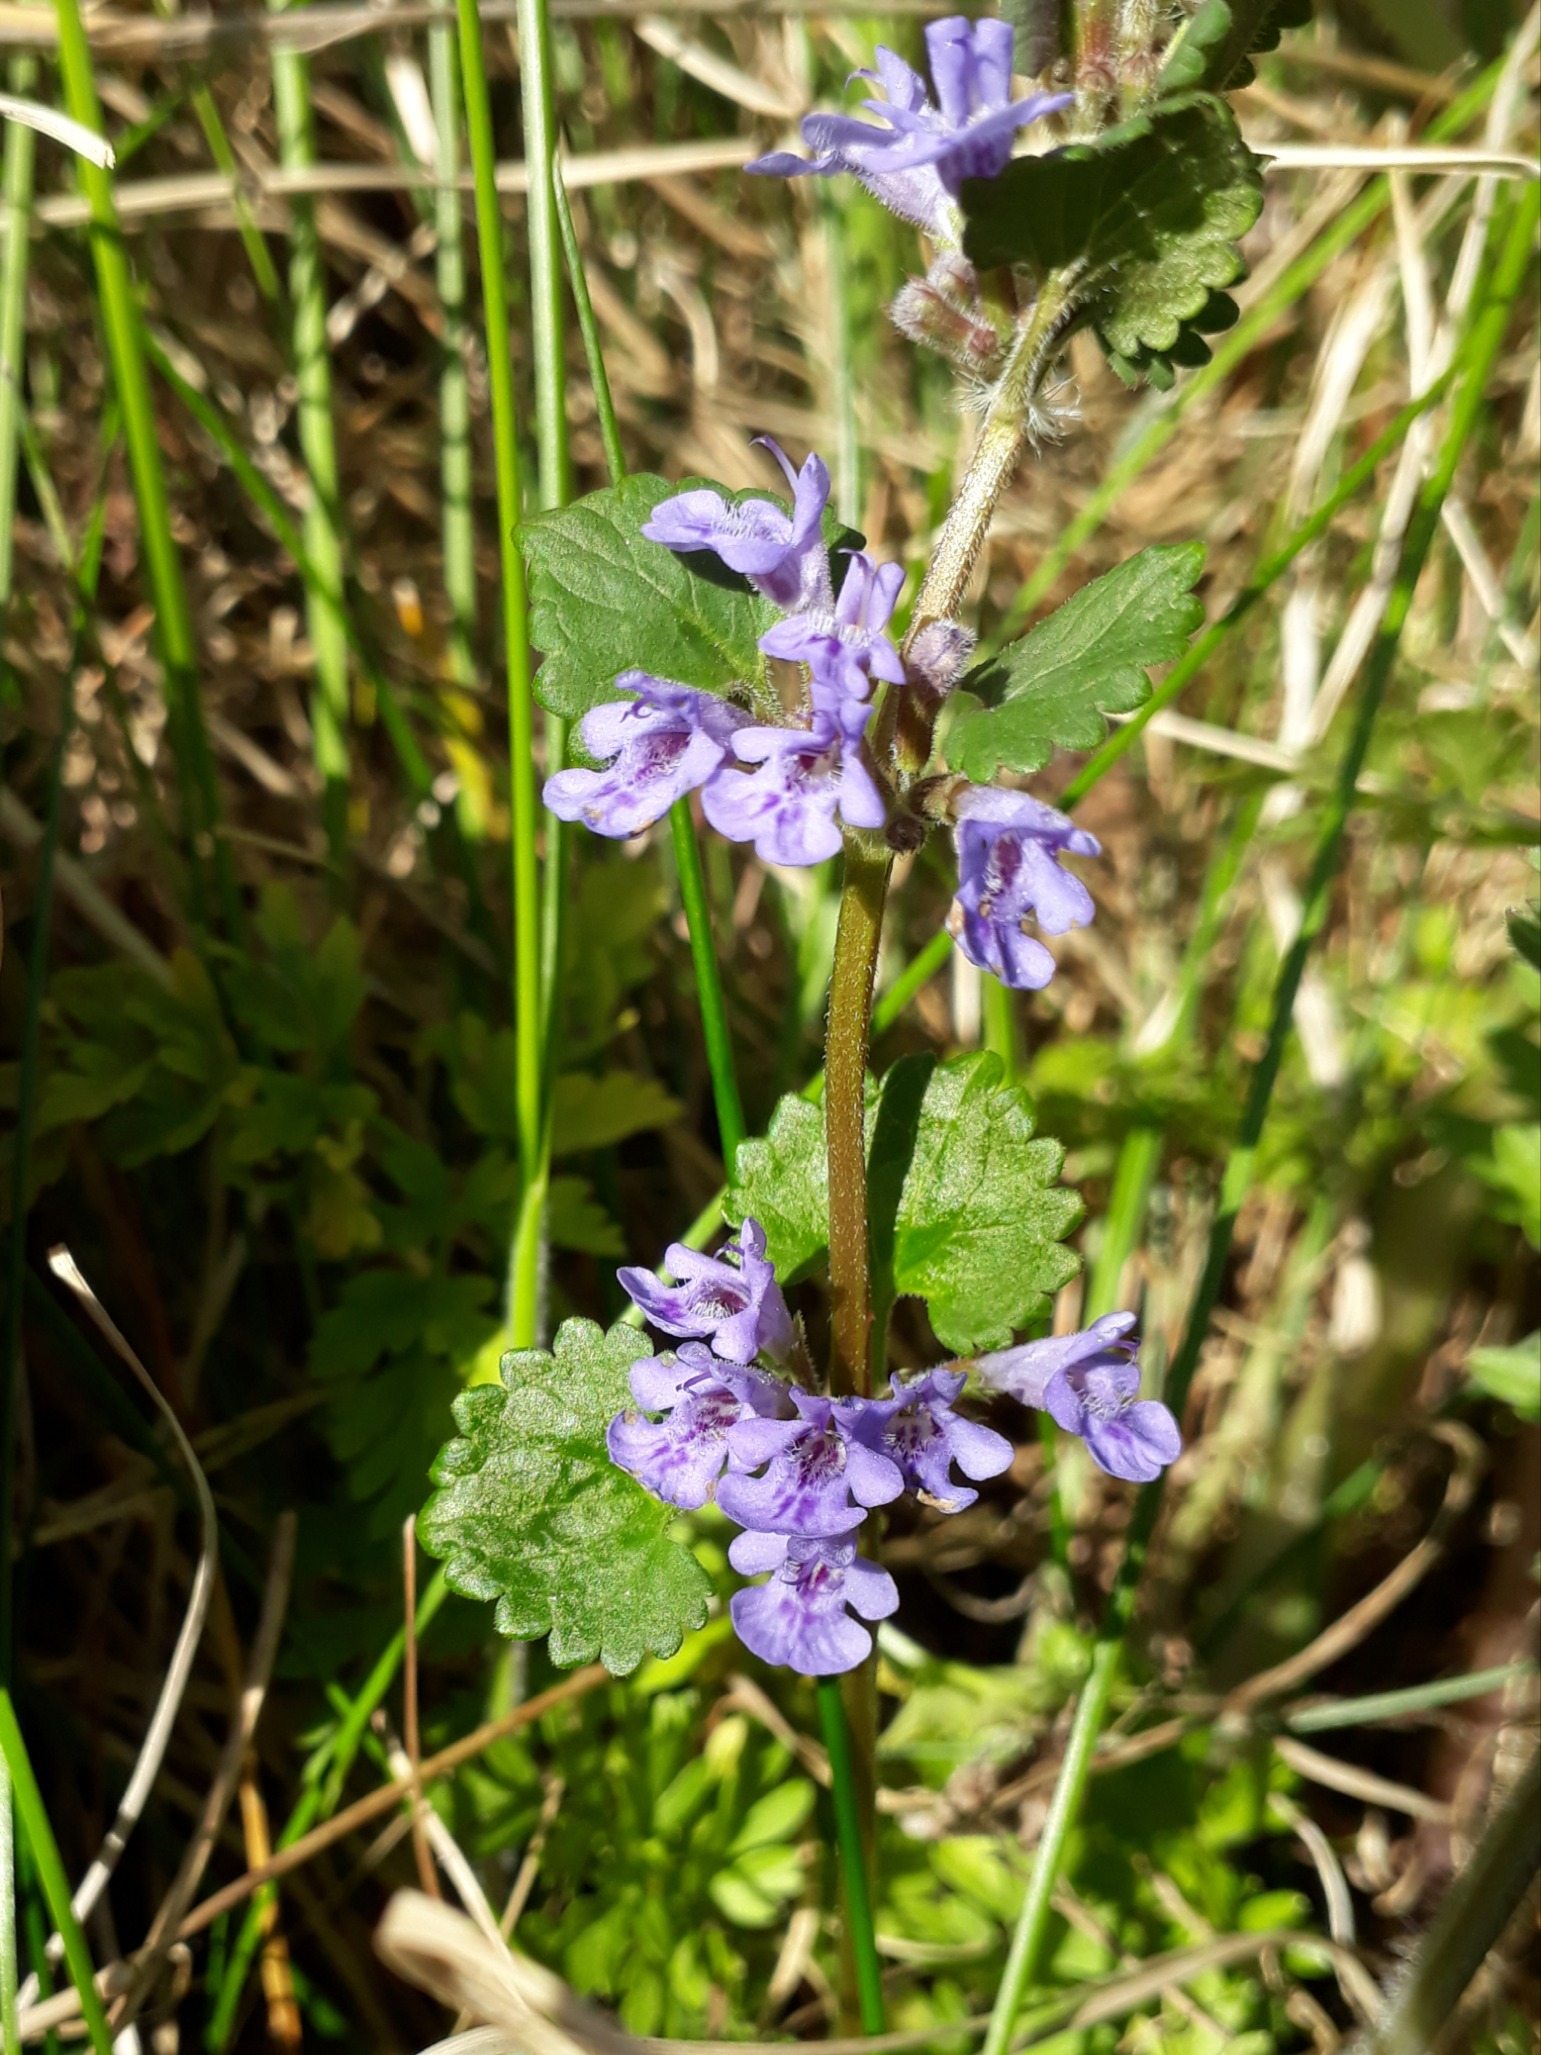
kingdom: Plantae
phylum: Tracheophyta
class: Magnoliopsida
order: Lamiales
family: Lamiaceae
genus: Glechoma
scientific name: Glechoma hederacea
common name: Korsknap
